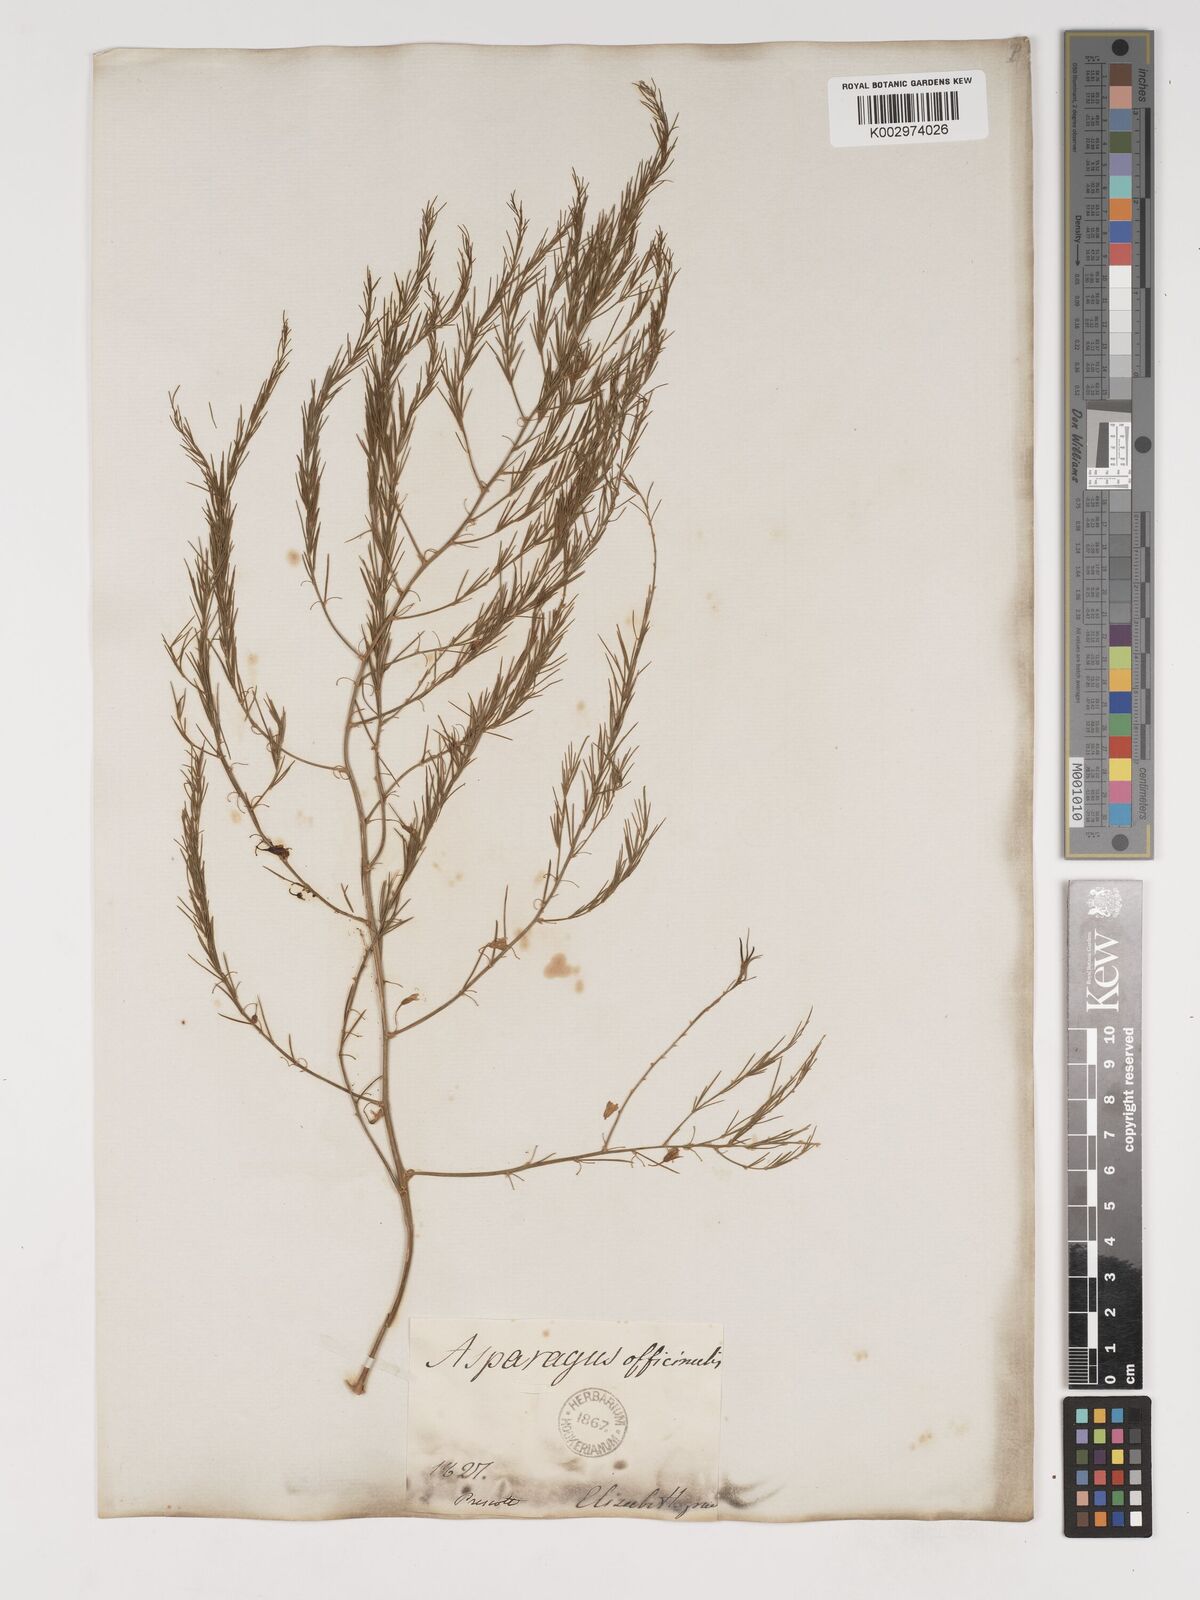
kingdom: Plantae
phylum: Tracheophyta
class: Liliopsida
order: Asparagales
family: Asparagaceae
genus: Asparagus
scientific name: Asparagus
